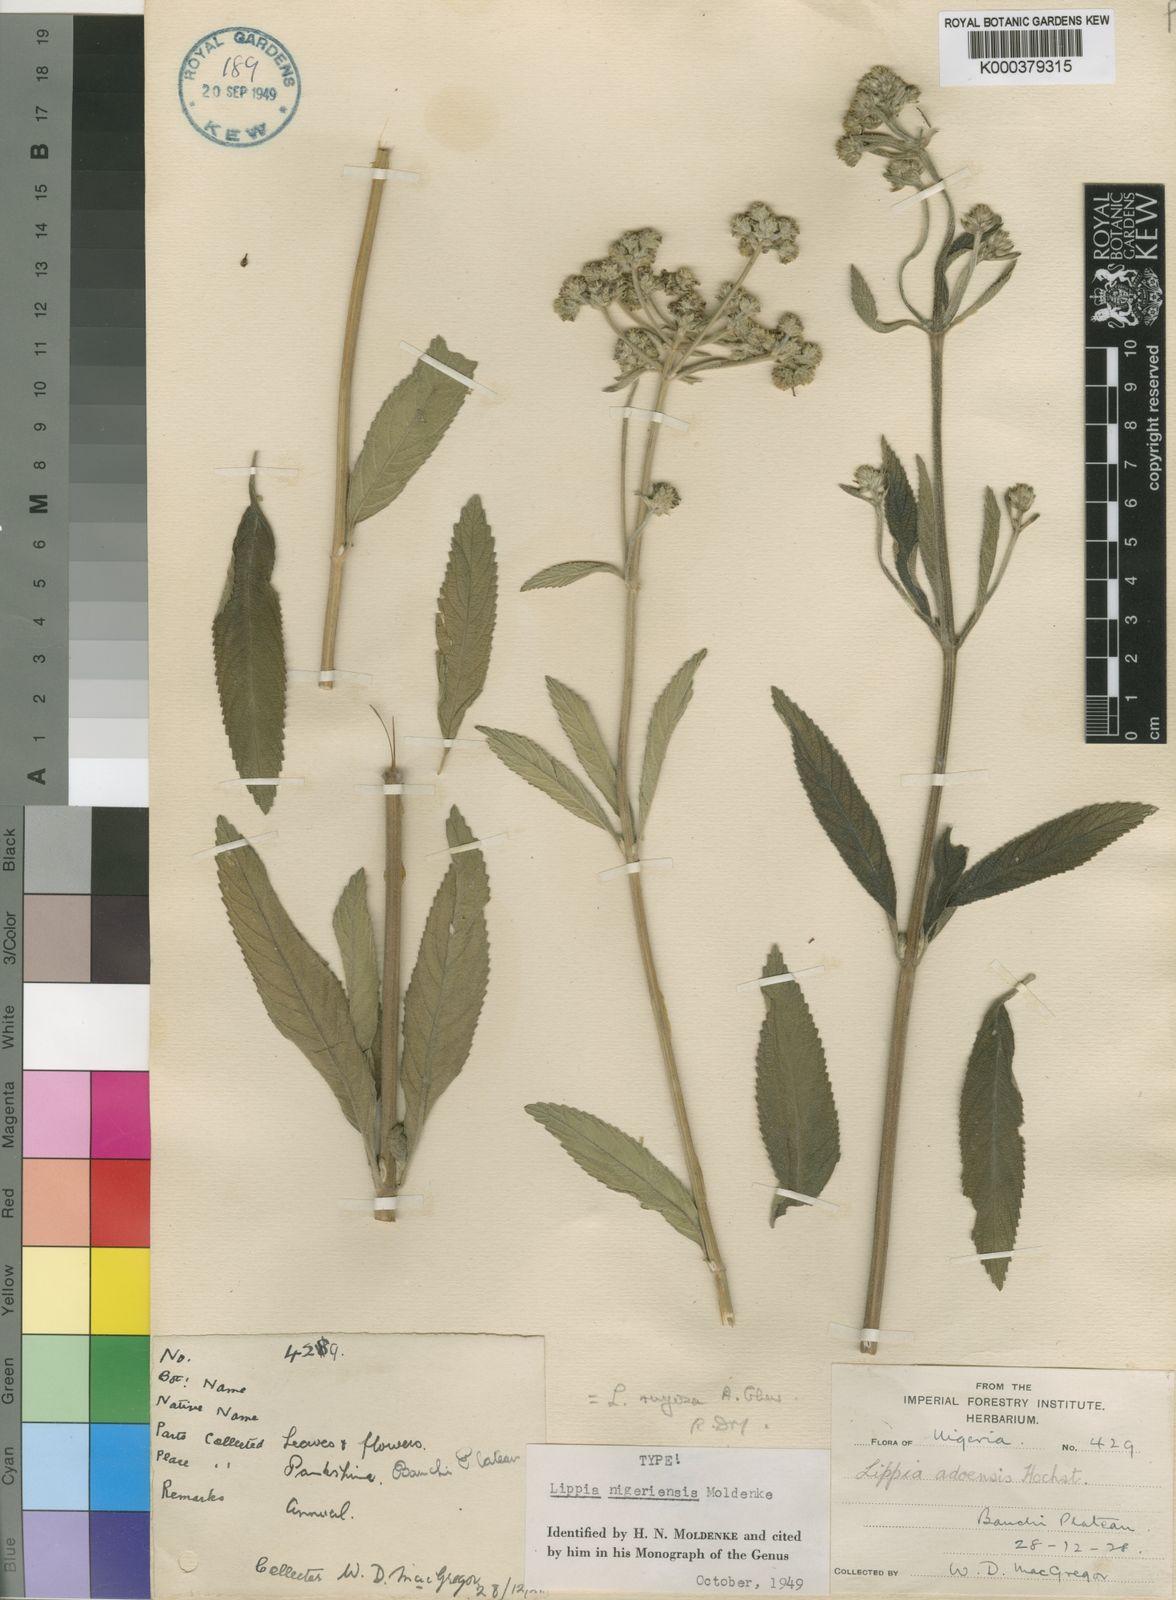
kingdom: Plantae
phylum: Tracheophyta
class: Magnoliopsida
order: Lamiales
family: Verbenaceae
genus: Lippia
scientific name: Lippia rugosa
